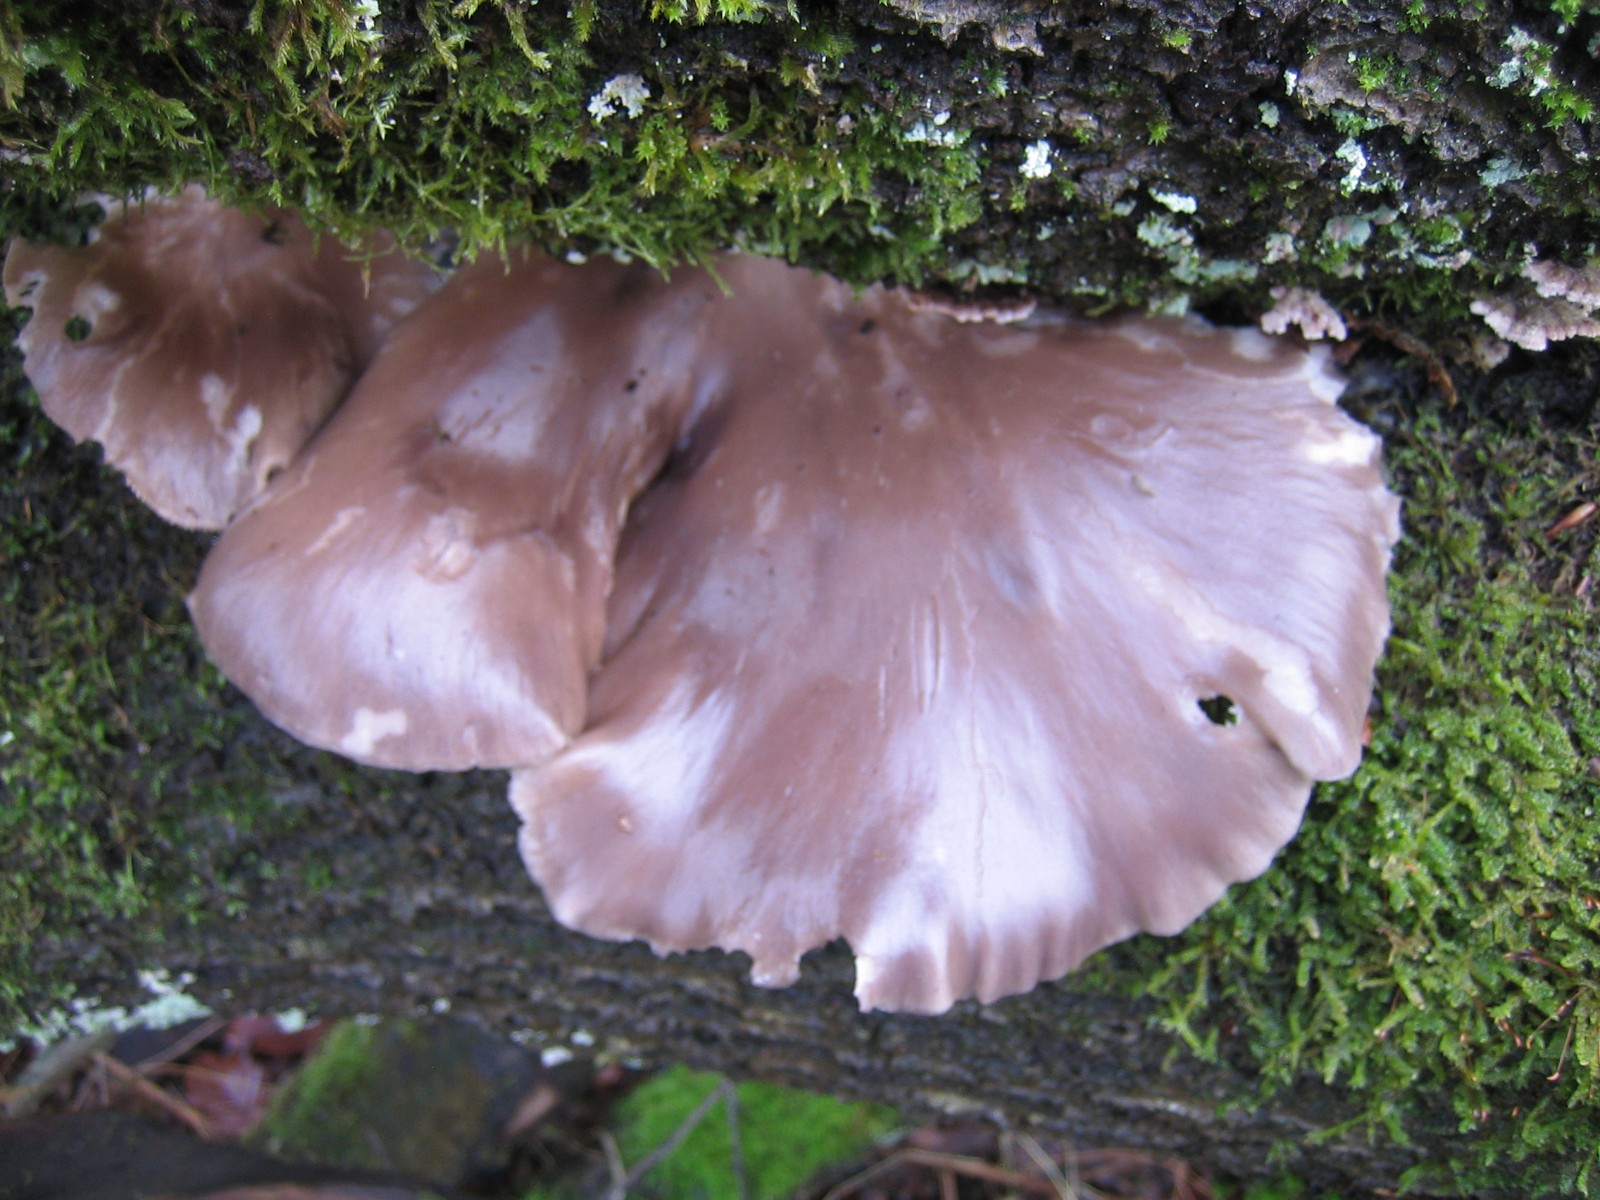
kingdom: Fungi
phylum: Basidiomycota
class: Agaricomycetes
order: Agaricales
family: Pleurotaceae
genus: Pleurotus
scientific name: Pleurotus ostreatus
